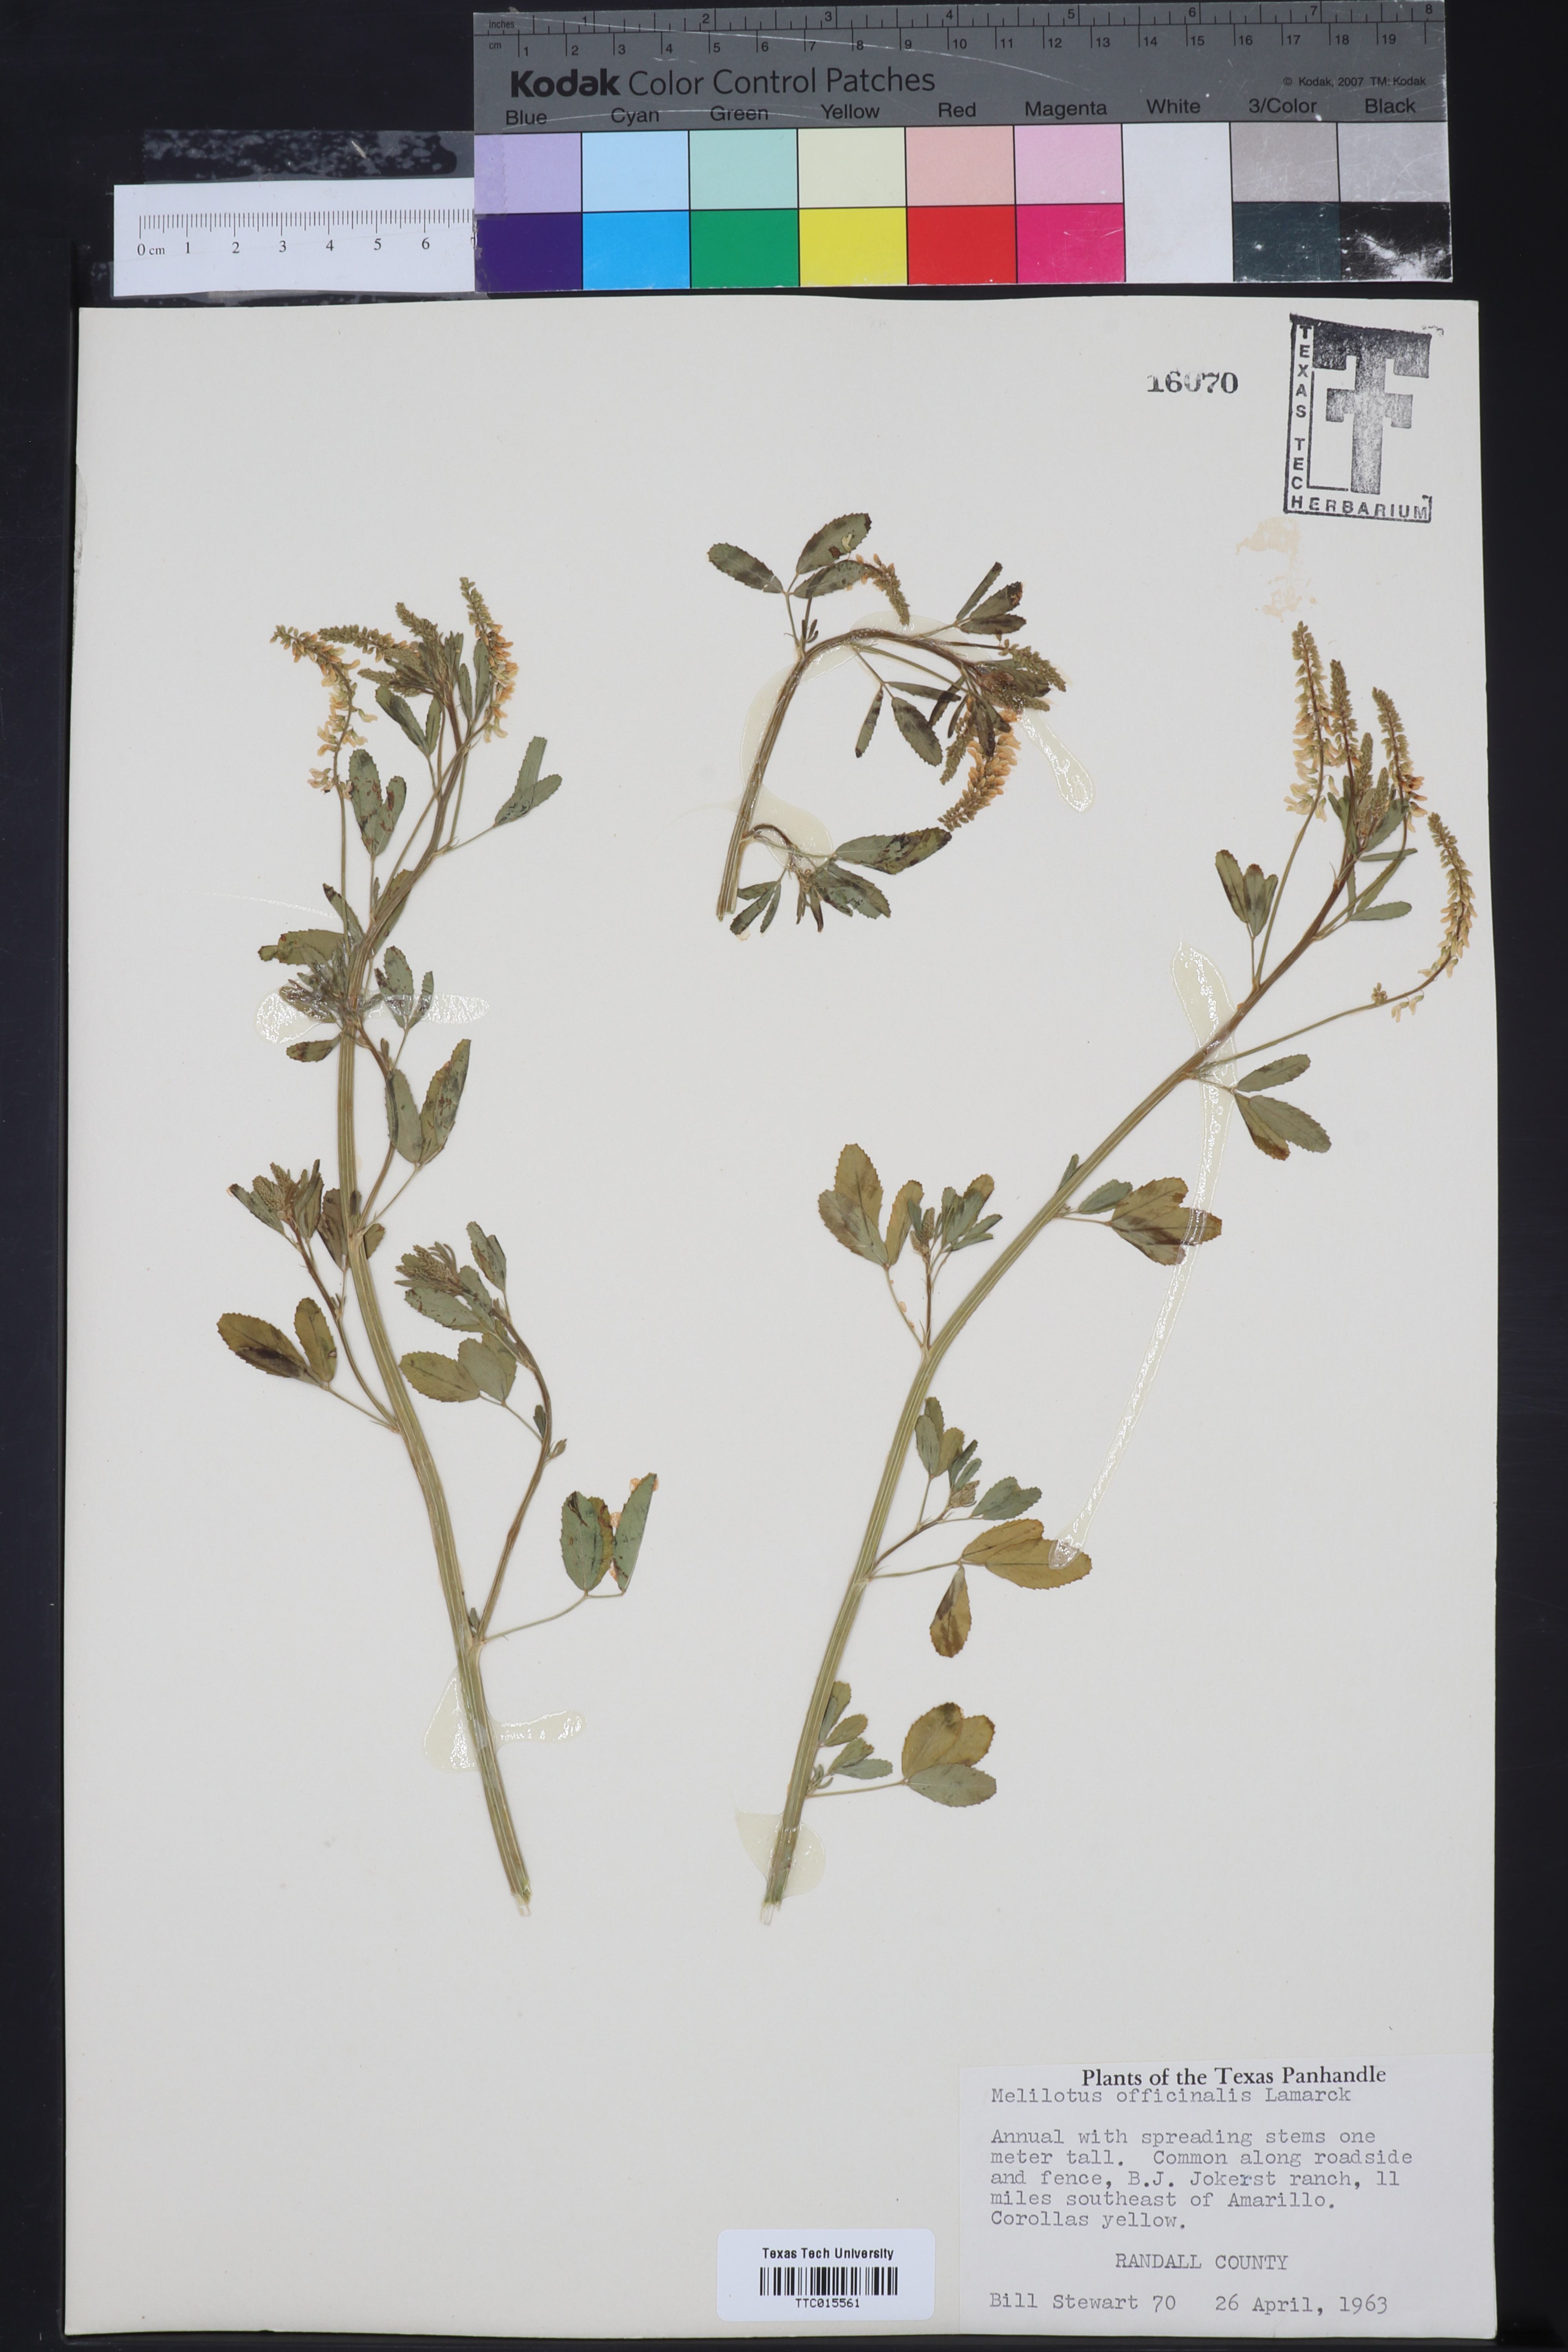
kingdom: Plantae
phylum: Tracheophyta
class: Magnoliopsida
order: Fabales
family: Fabaceae
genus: Melilotus
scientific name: Melilotus officinalis
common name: Sweetclover
